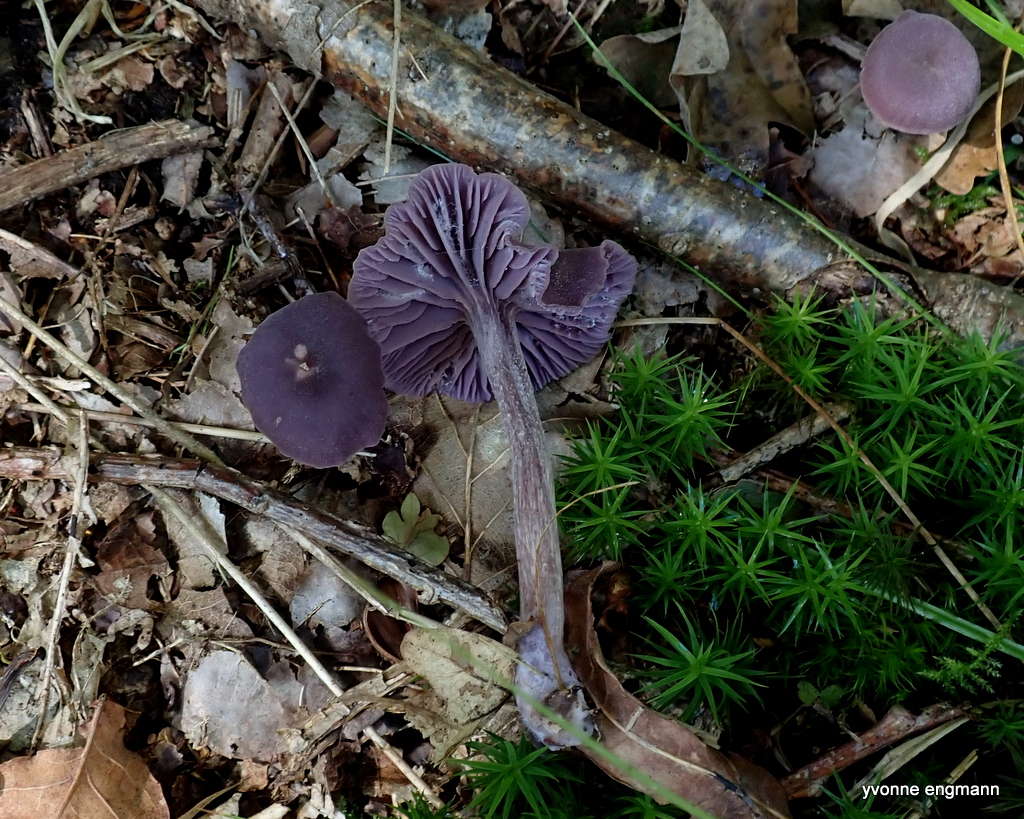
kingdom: Fungi
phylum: Basidiomycota
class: Agaricomycetes
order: Agaricales
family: Hydnangiaceae
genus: Laccaria
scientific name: Laccaria amethystina
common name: violet ametysthat
